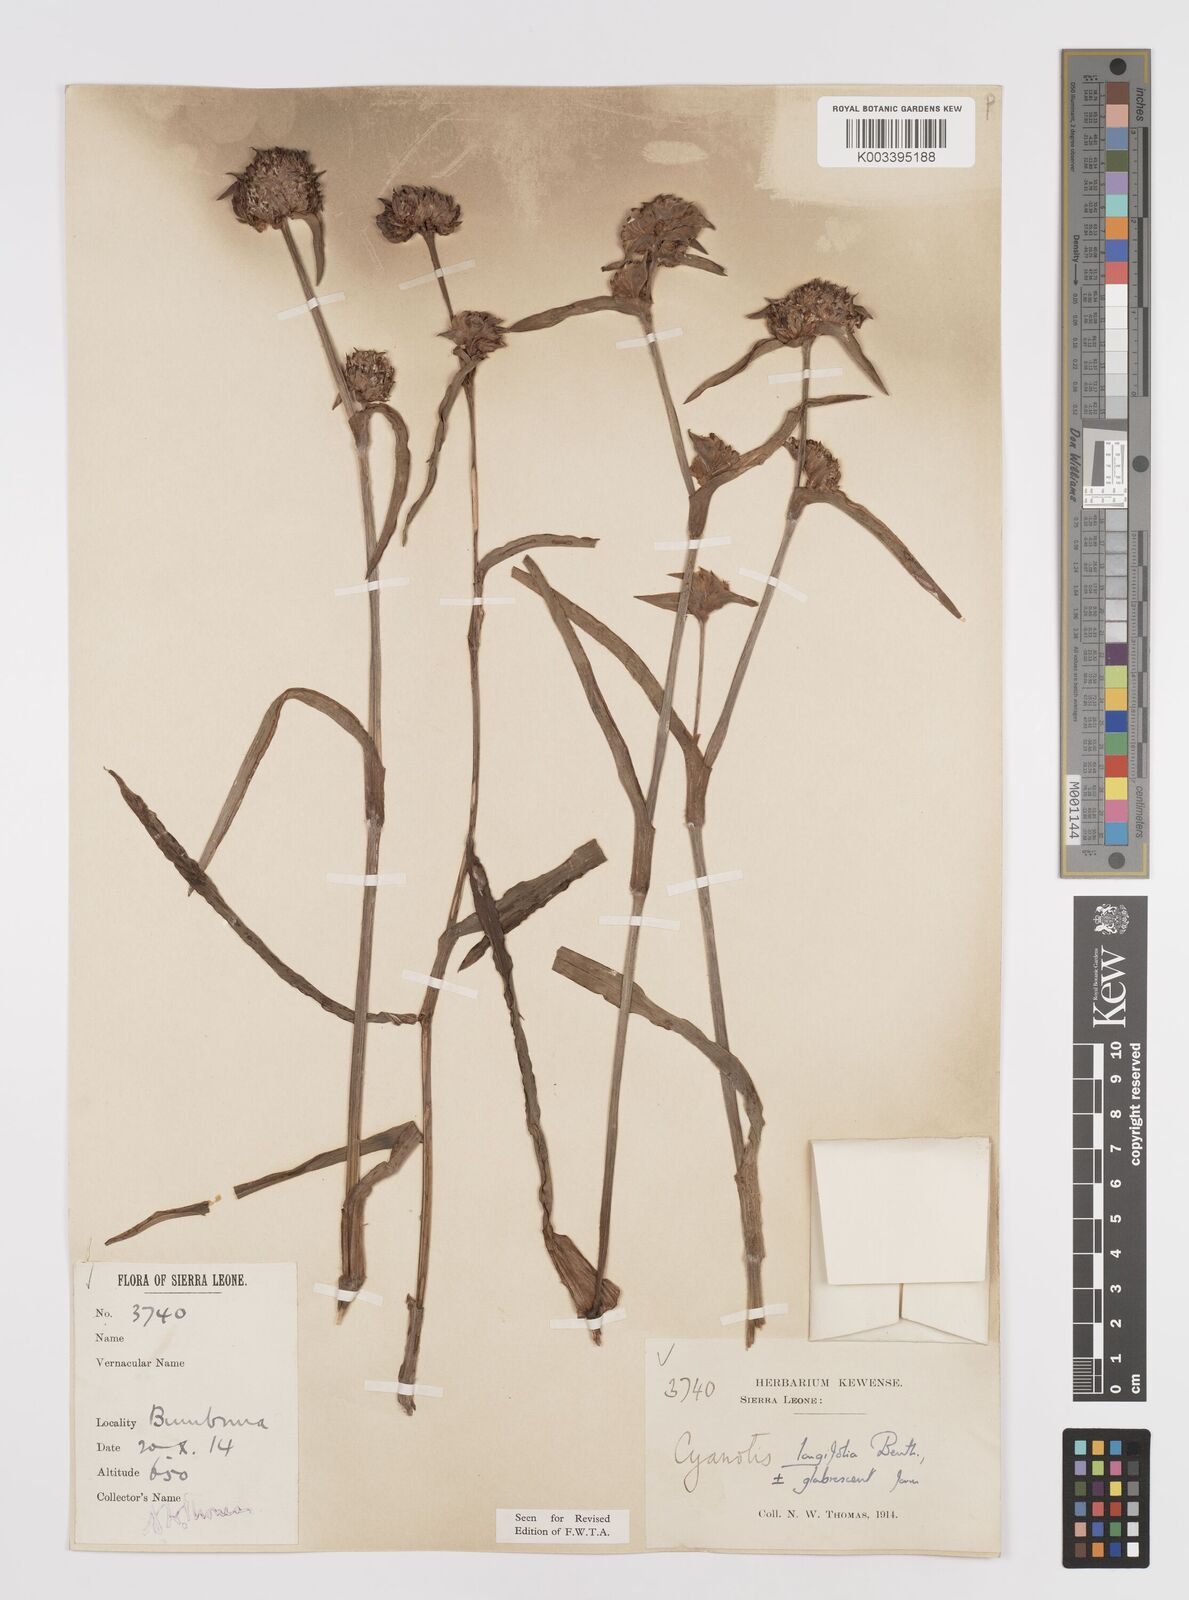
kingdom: Plantae
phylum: Tracheophyta
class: Liliopsida
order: Commelinales
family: Commelinaceae
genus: Cyanotis
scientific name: Cyanotis
